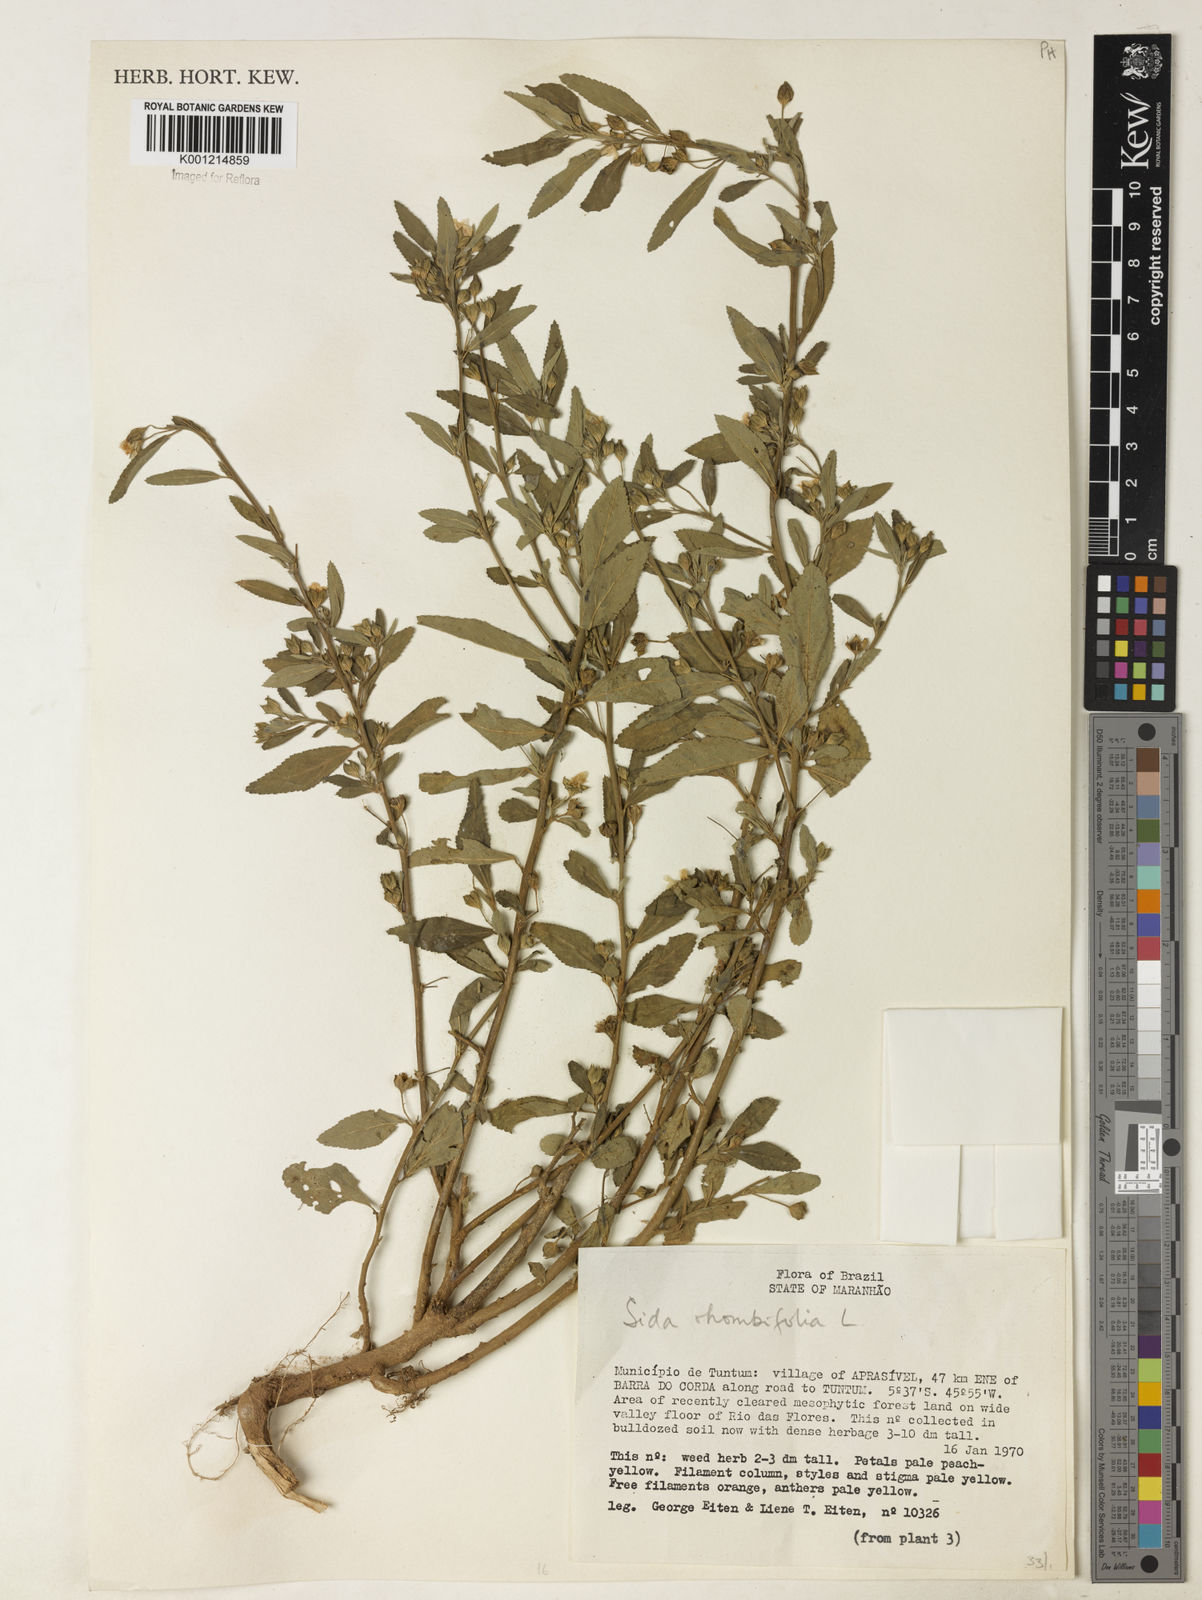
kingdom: Plantae
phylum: Tracheophyta
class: Magnoliopsida
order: Malvales
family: Malvaceae
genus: Sida
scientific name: Sida rhombifolia
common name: Queensland-hemp
